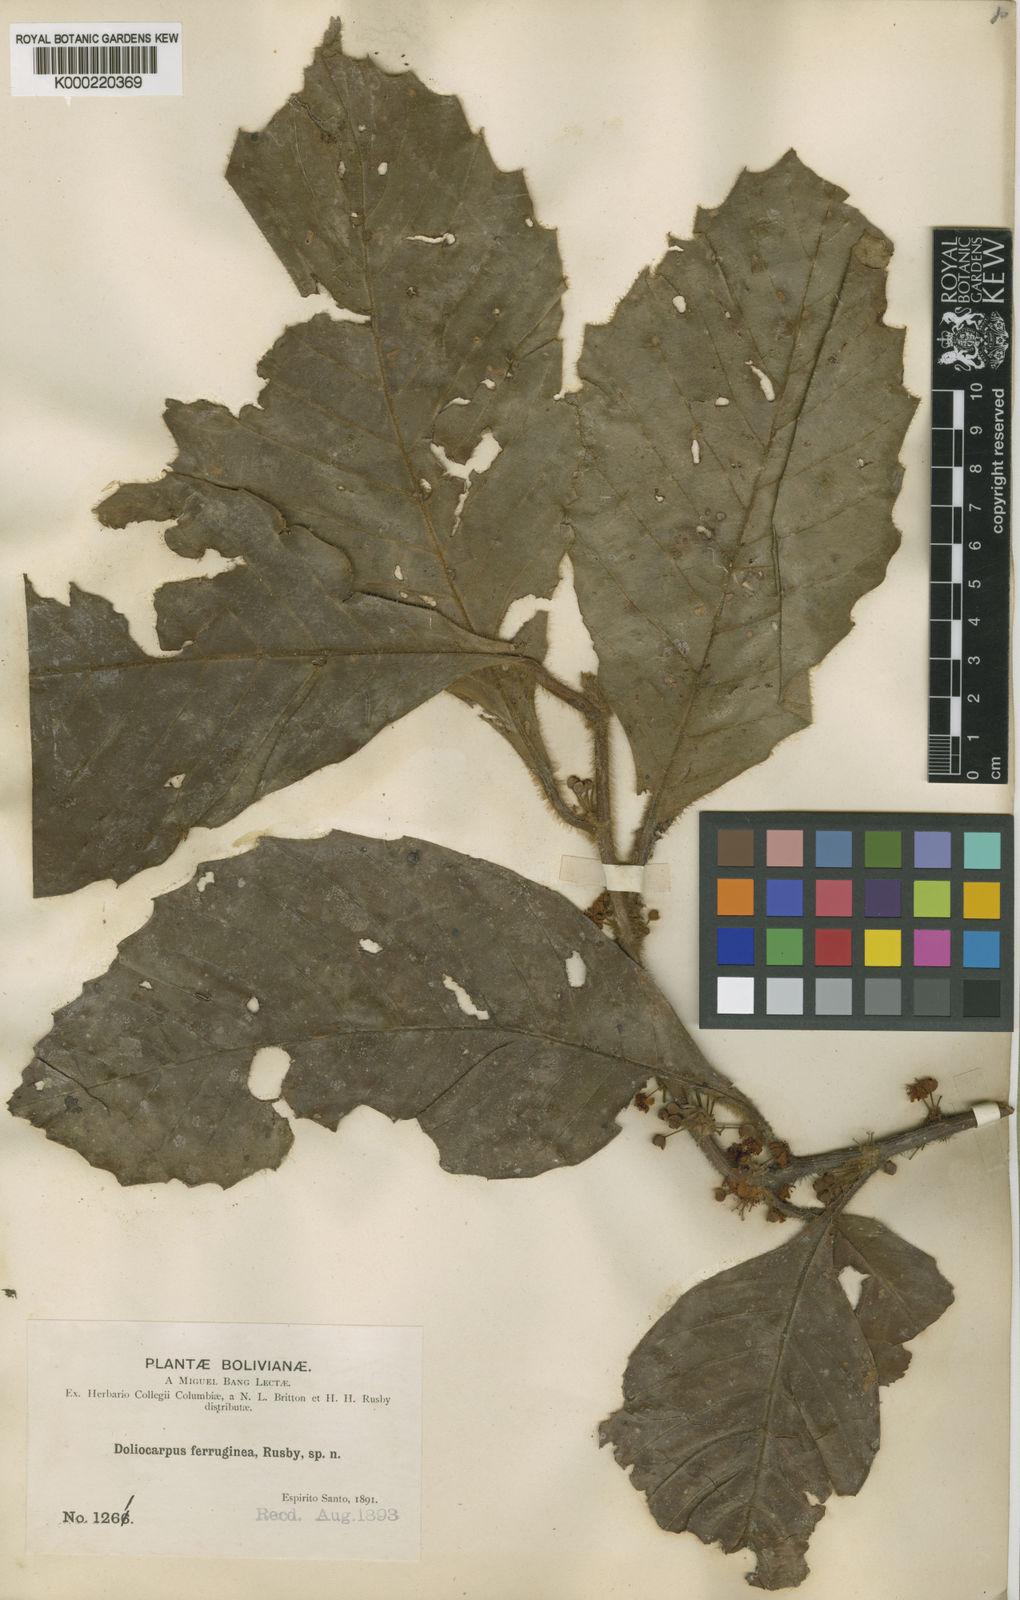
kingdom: Plantae
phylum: Tracheophyta
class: Magnoliopsida
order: Dilleniales
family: Dilleniaceae
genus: Doliocarpus
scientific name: Doliocarpus dentatus
